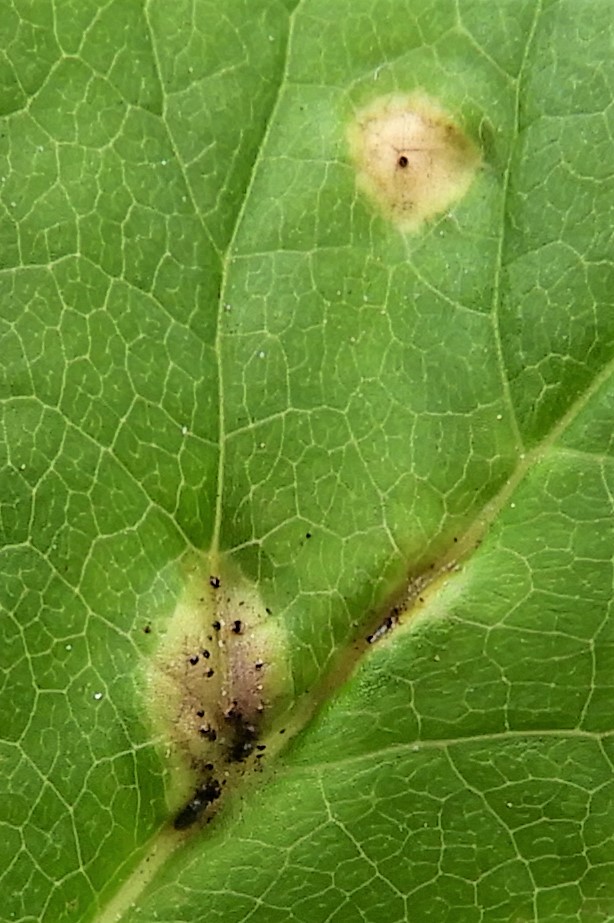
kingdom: Fungi
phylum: Basidiomycota
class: Pucciniomycetes
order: Pucciniales
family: Pucciniaceae
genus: Puccinia
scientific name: Puccinia
